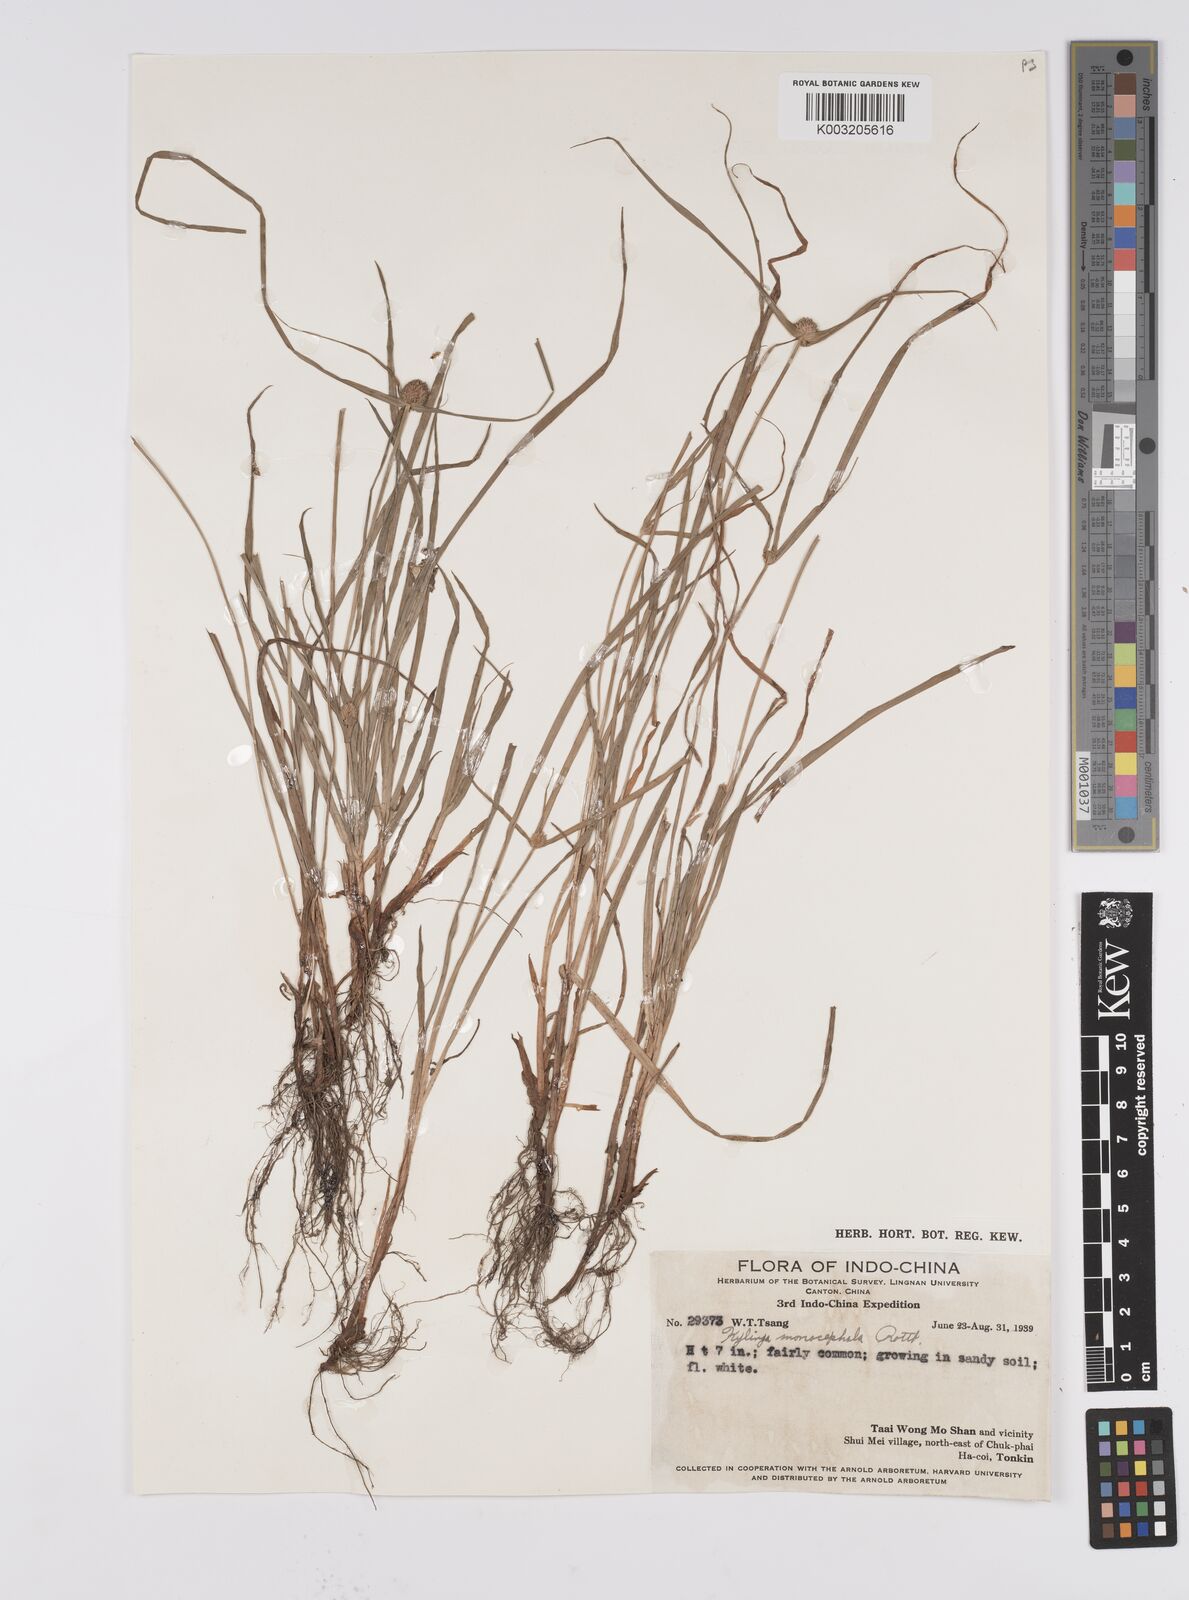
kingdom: Plantae
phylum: Tracheophyta
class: Liliopsida
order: Poales
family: Cyperaceae
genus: Cyperus
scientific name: Cyperus
